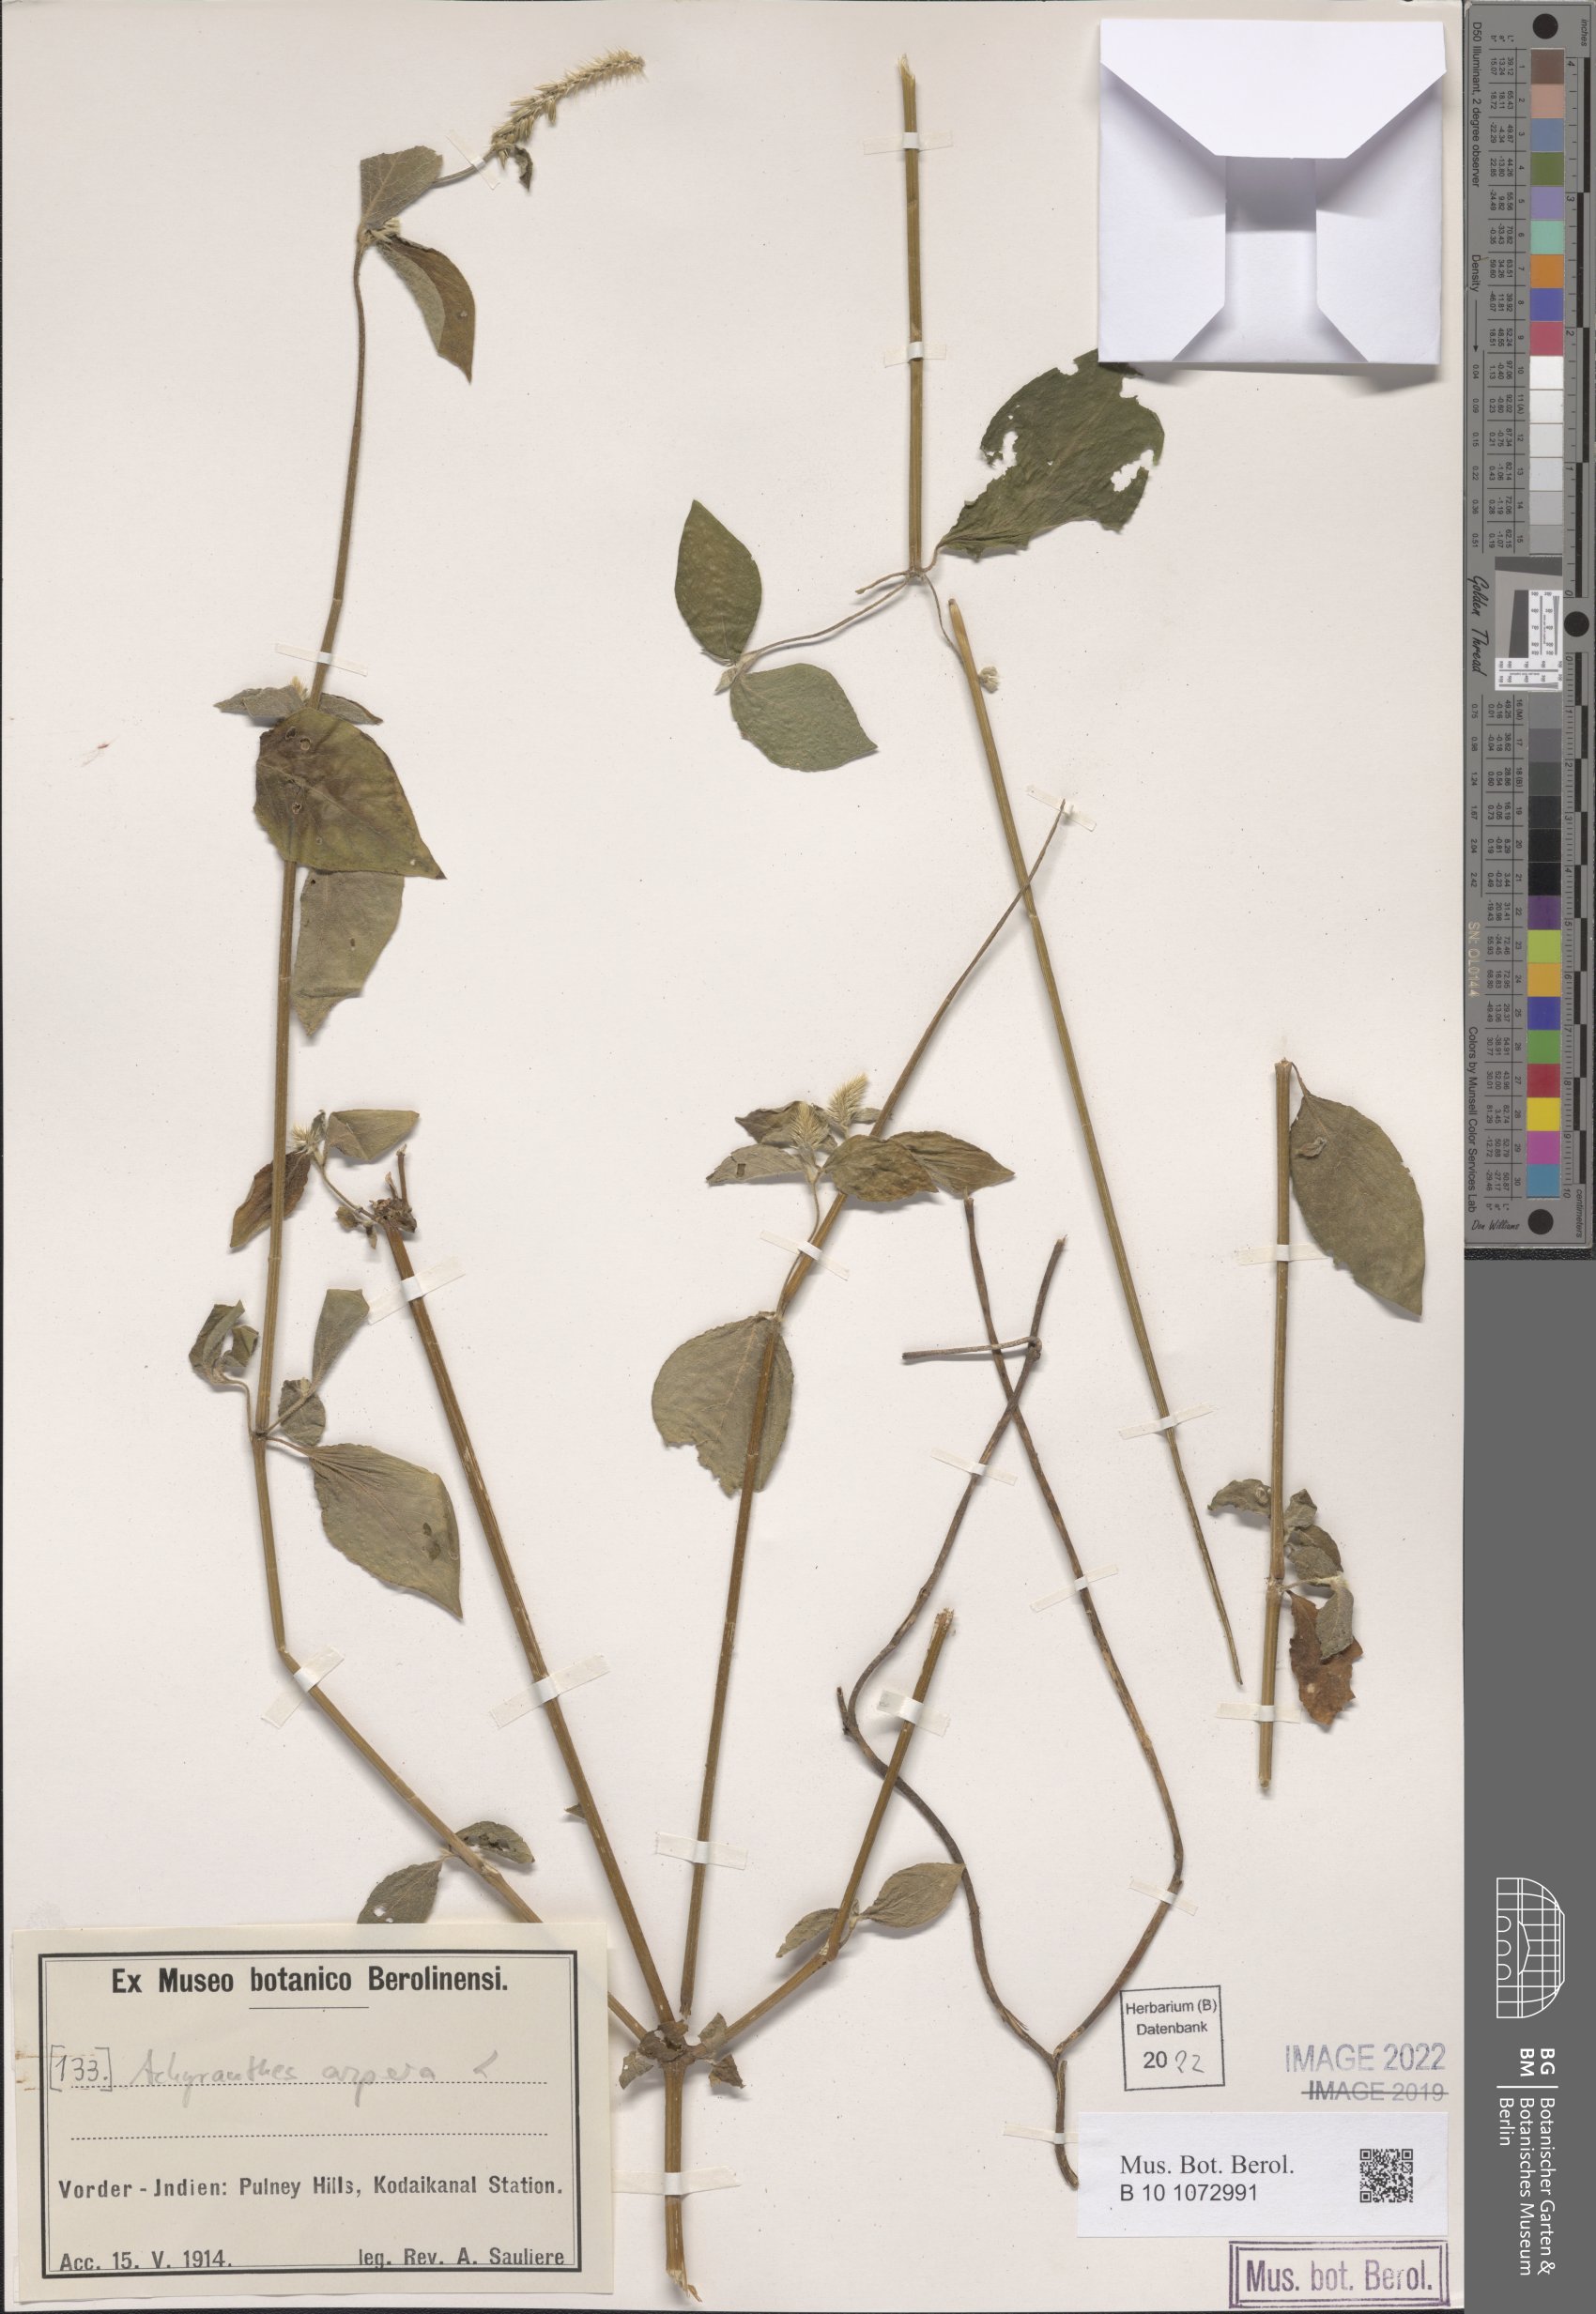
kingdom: Plantae
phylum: Tracheophyta
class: Magnoliopsida
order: Caryophyllales
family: Amaranthaceae
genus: Achyranthes
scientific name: Achyranthes aspera
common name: Devil's horsewhip
